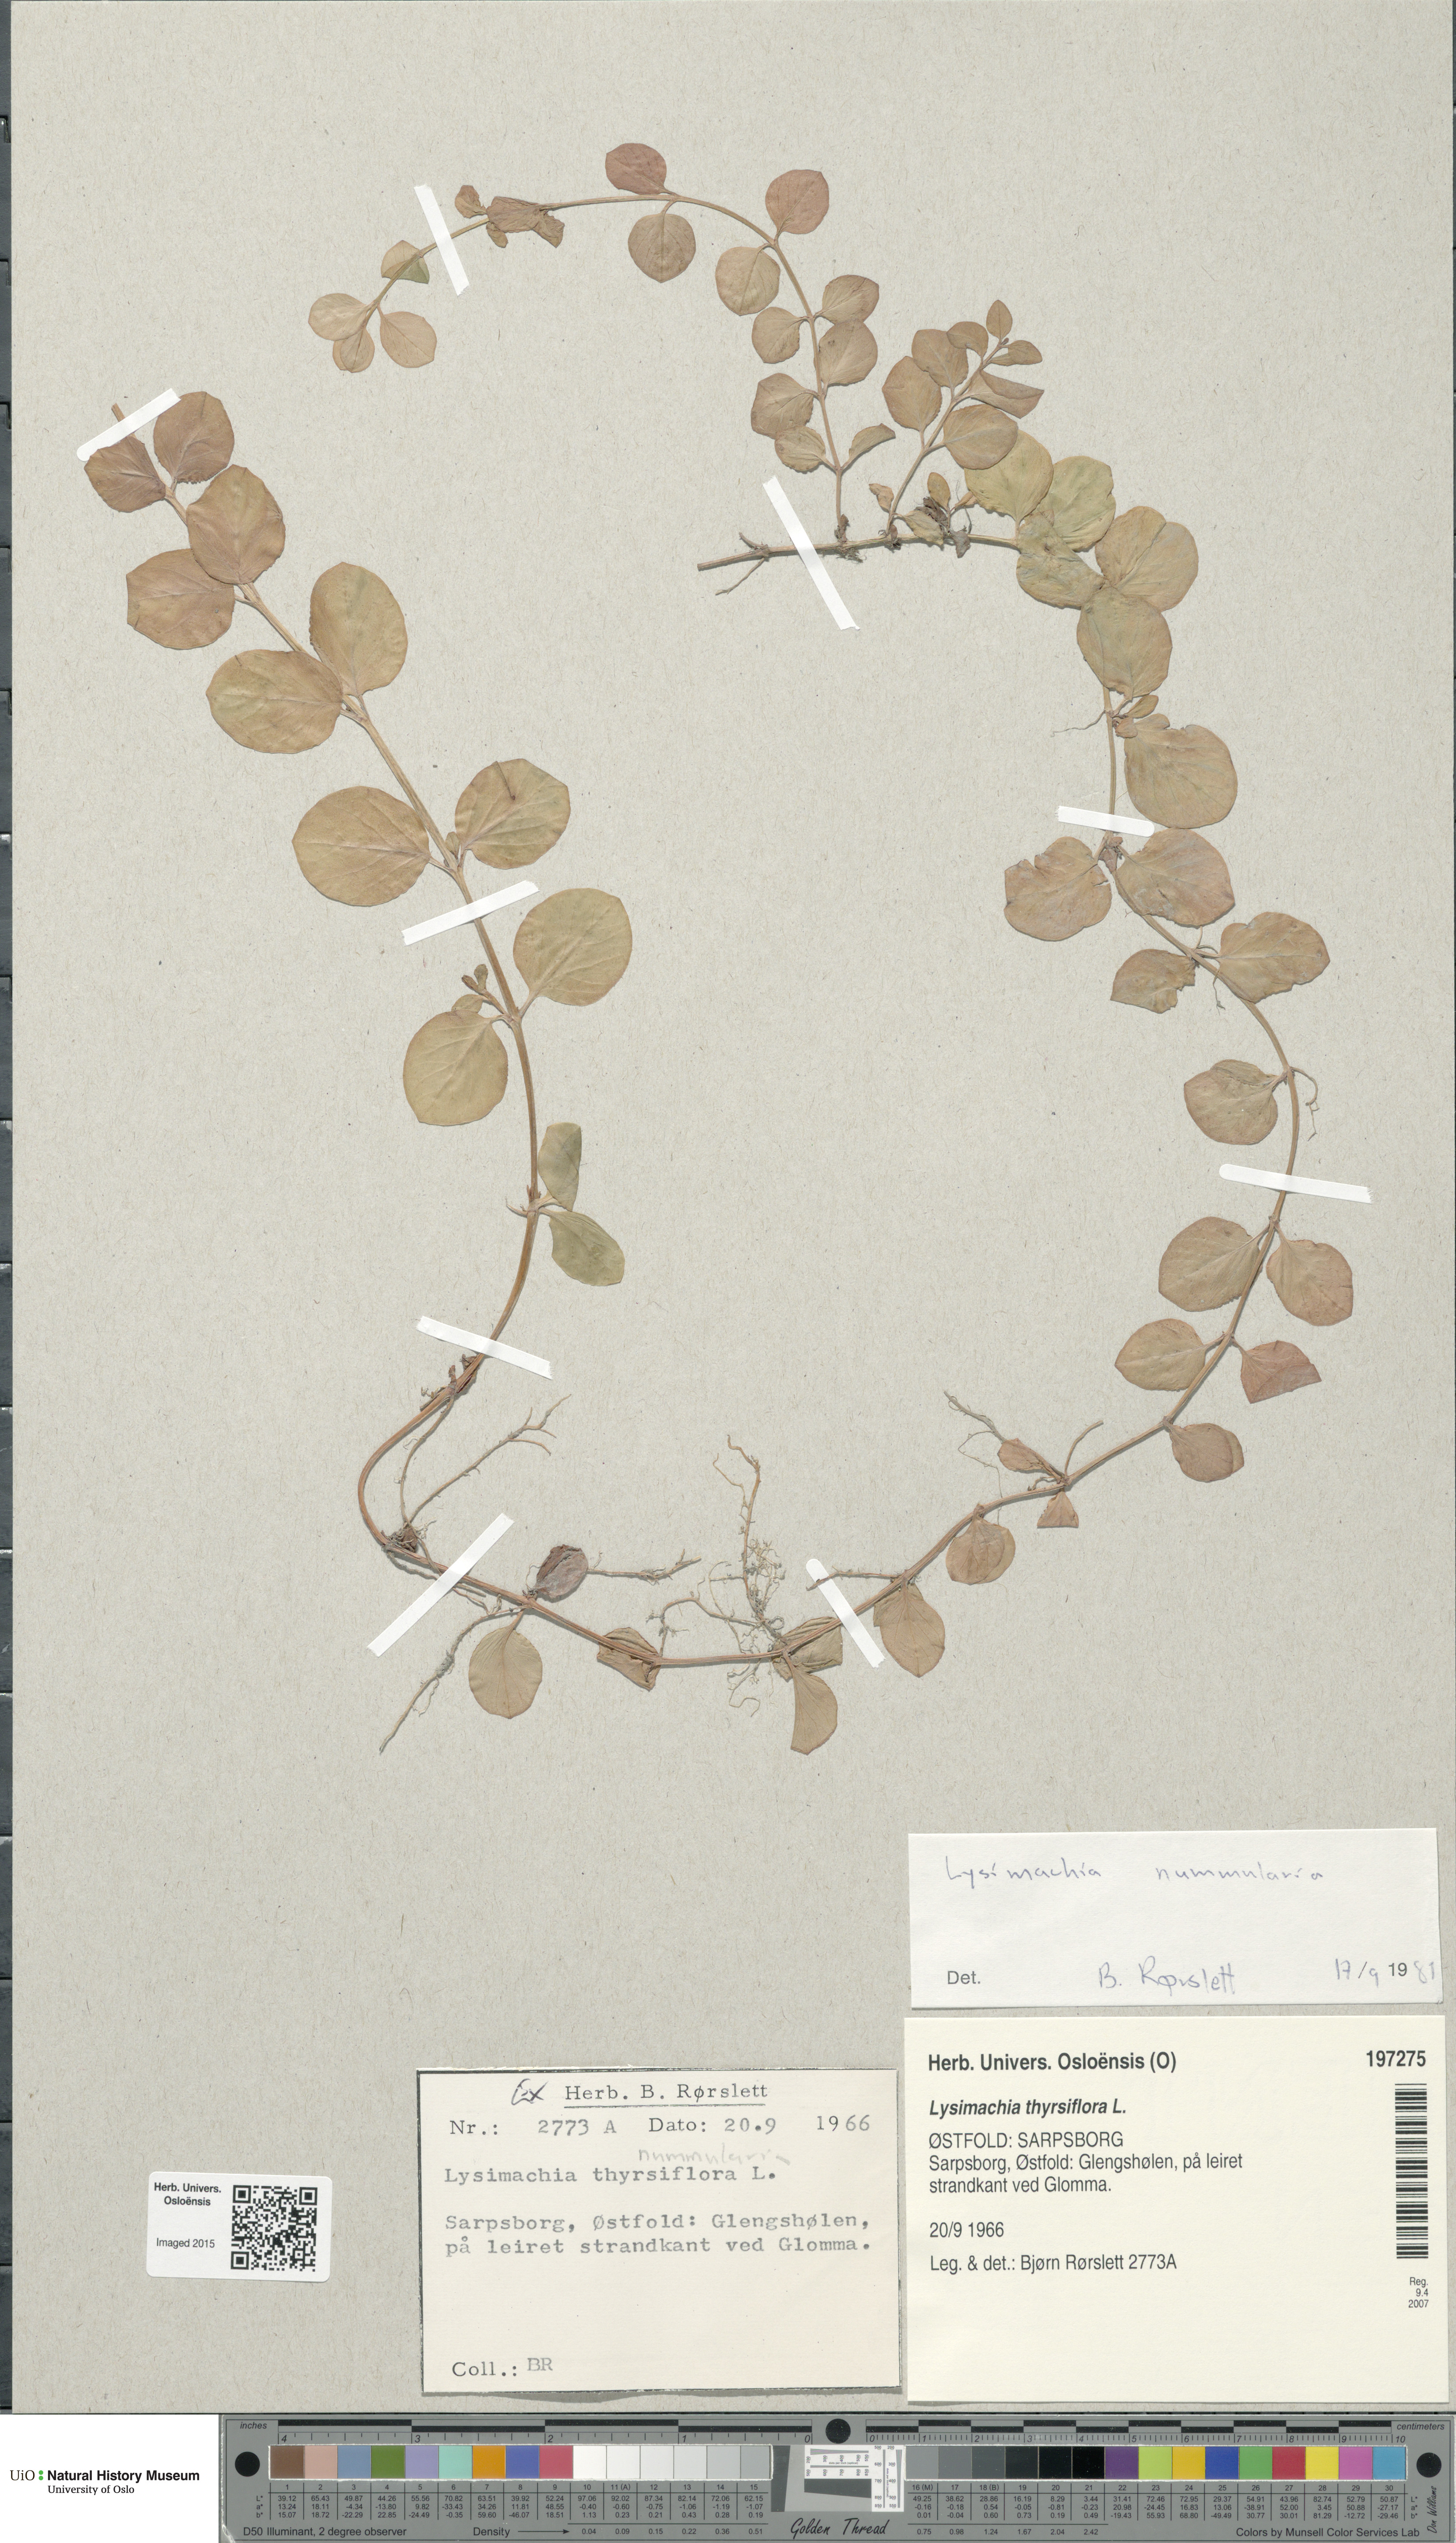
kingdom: Plantae
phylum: Tracheophyta
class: Magnoliopsida
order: Ericales
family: Primulaceae
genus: Lysimachia
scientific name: Lysimachia nummularia
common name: Moneywort
